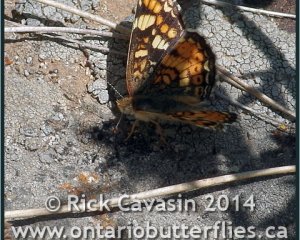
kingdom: Animalia
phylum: Arthropoda
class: Insecta
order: Lepidoptera
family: Nymphalidae
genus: Phyciodes
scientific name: Phyciodes tharos
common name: Field Crescent
